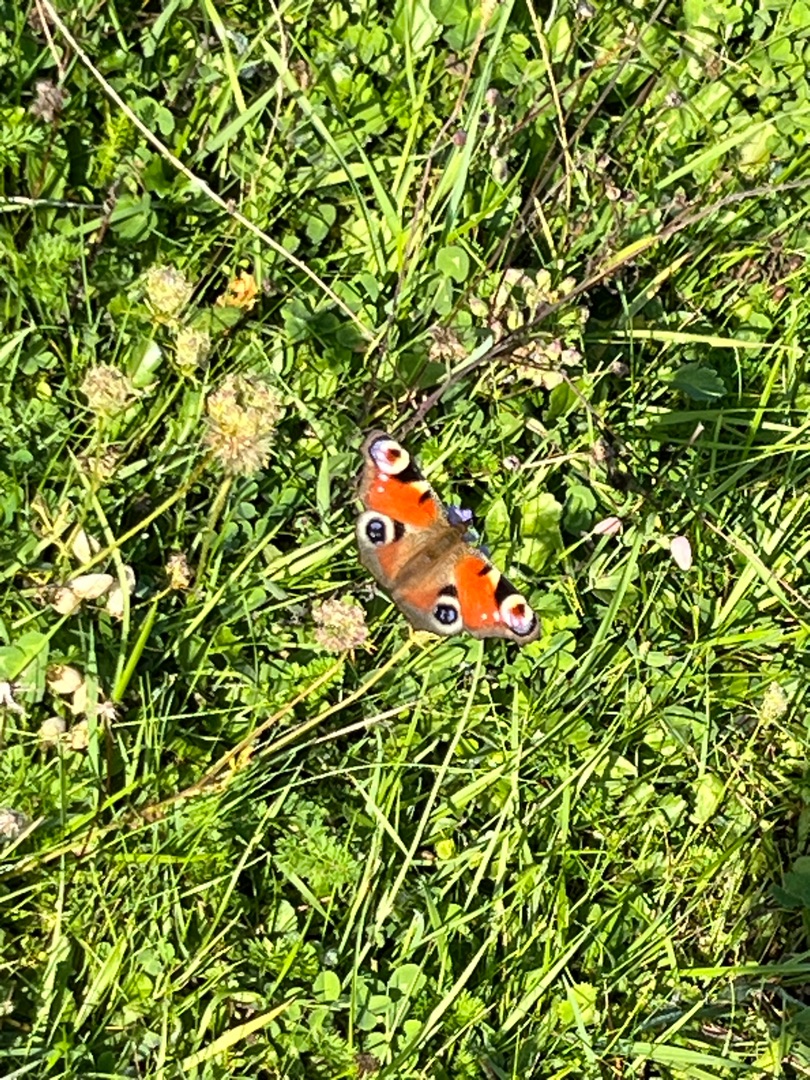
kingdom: Animalia
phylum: Arthropoda
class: Insecta
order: Lepidoptera
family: Nymphalidae
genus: Aglais
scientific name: Aglais io
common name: Dagpåfugleøje
